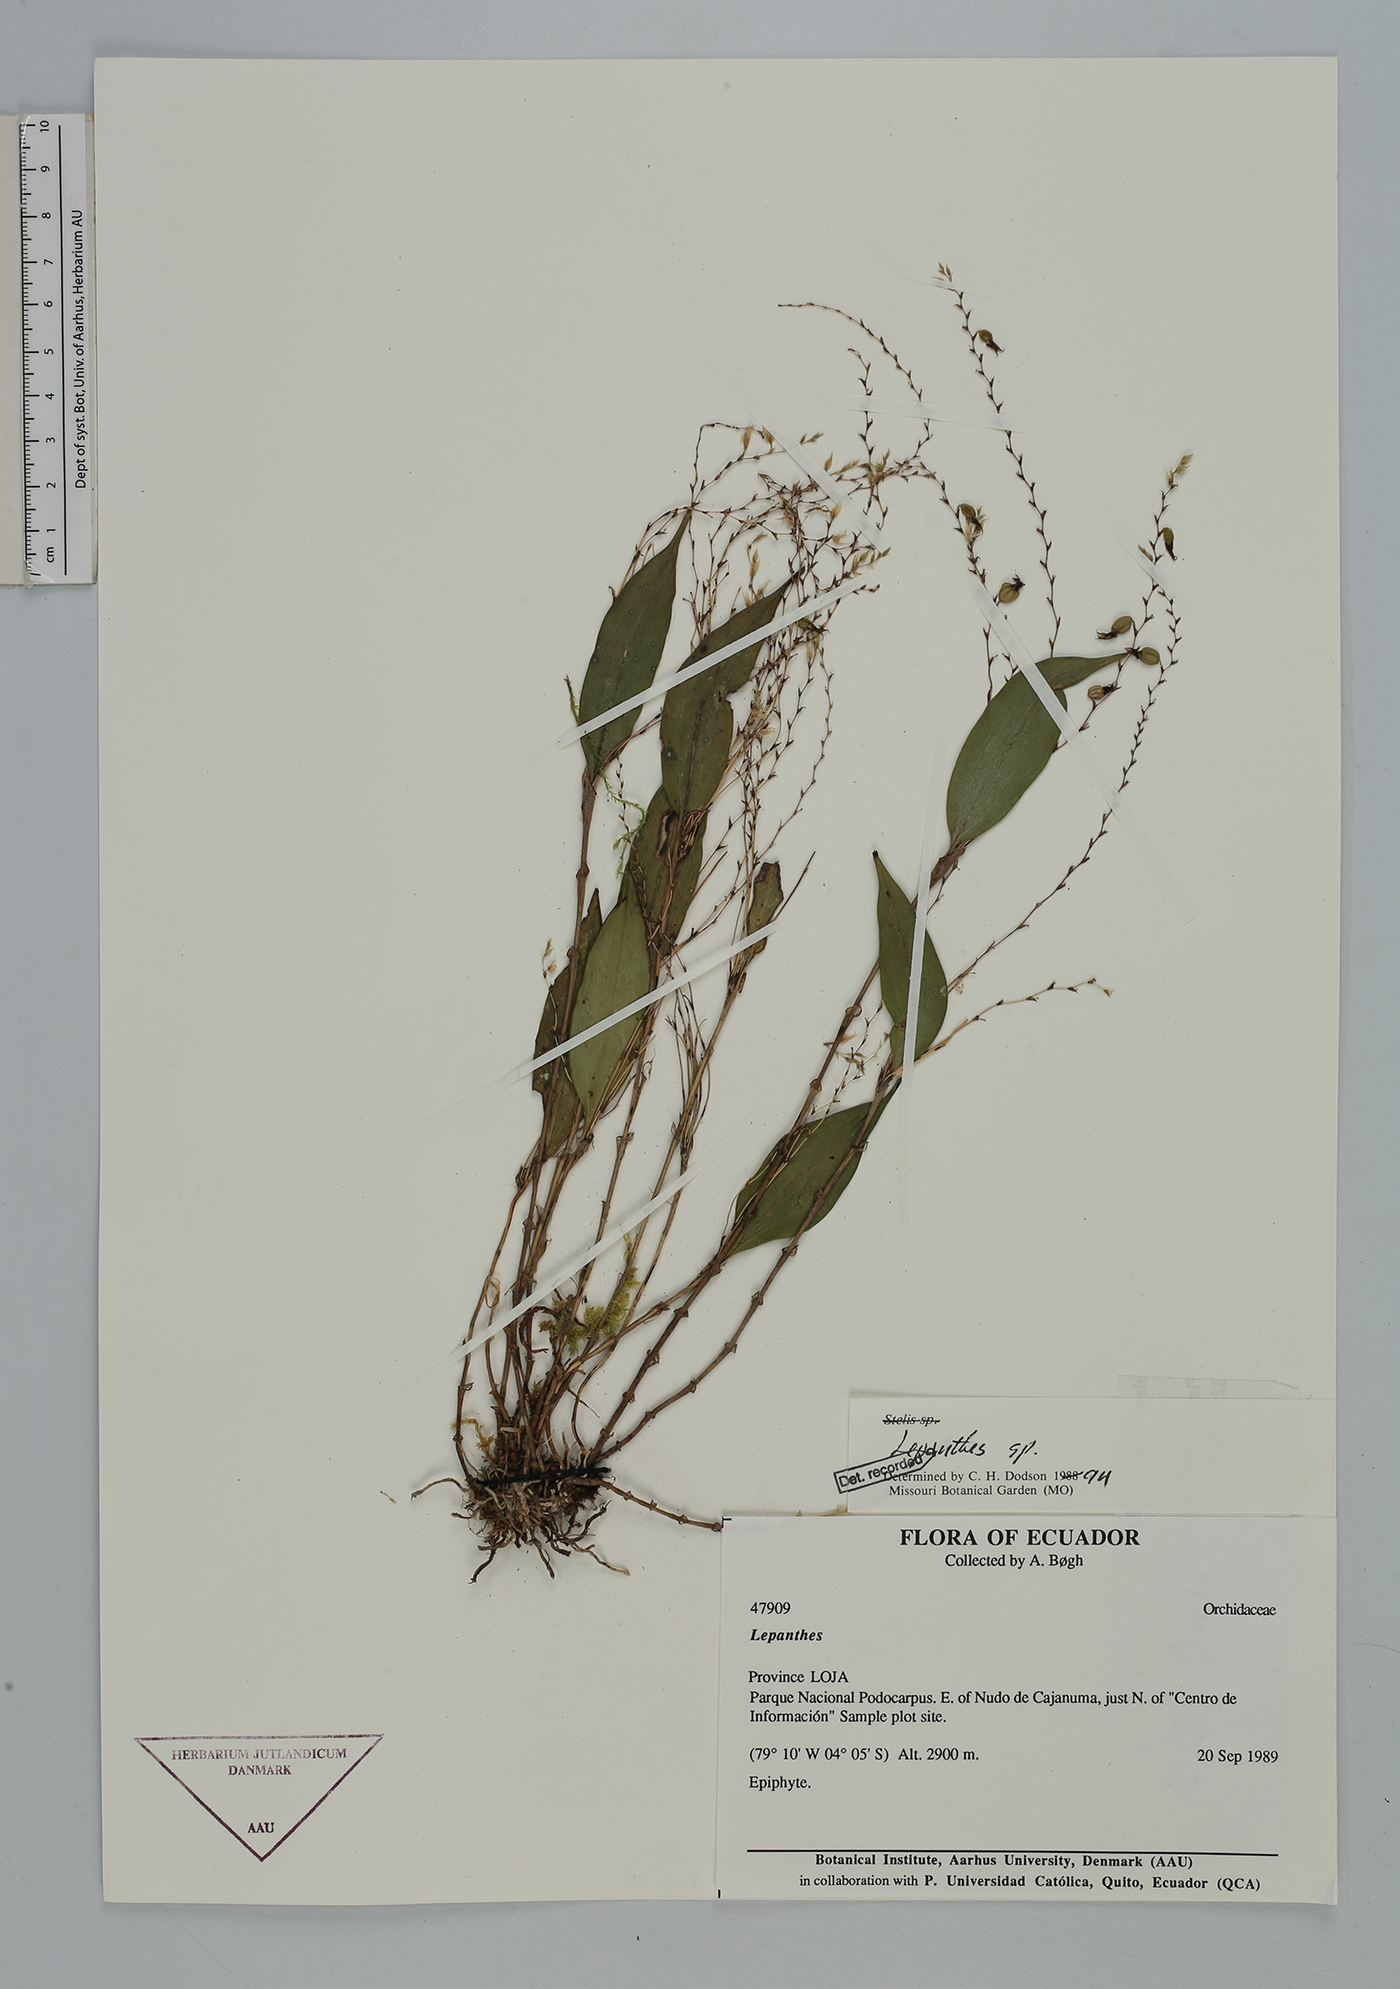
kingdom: Plantae
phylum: Tracheophyta
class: Liliopsida
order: Asparagales
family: Orchidaceae
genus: Lepanthes
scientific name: Lepanthes biloba
